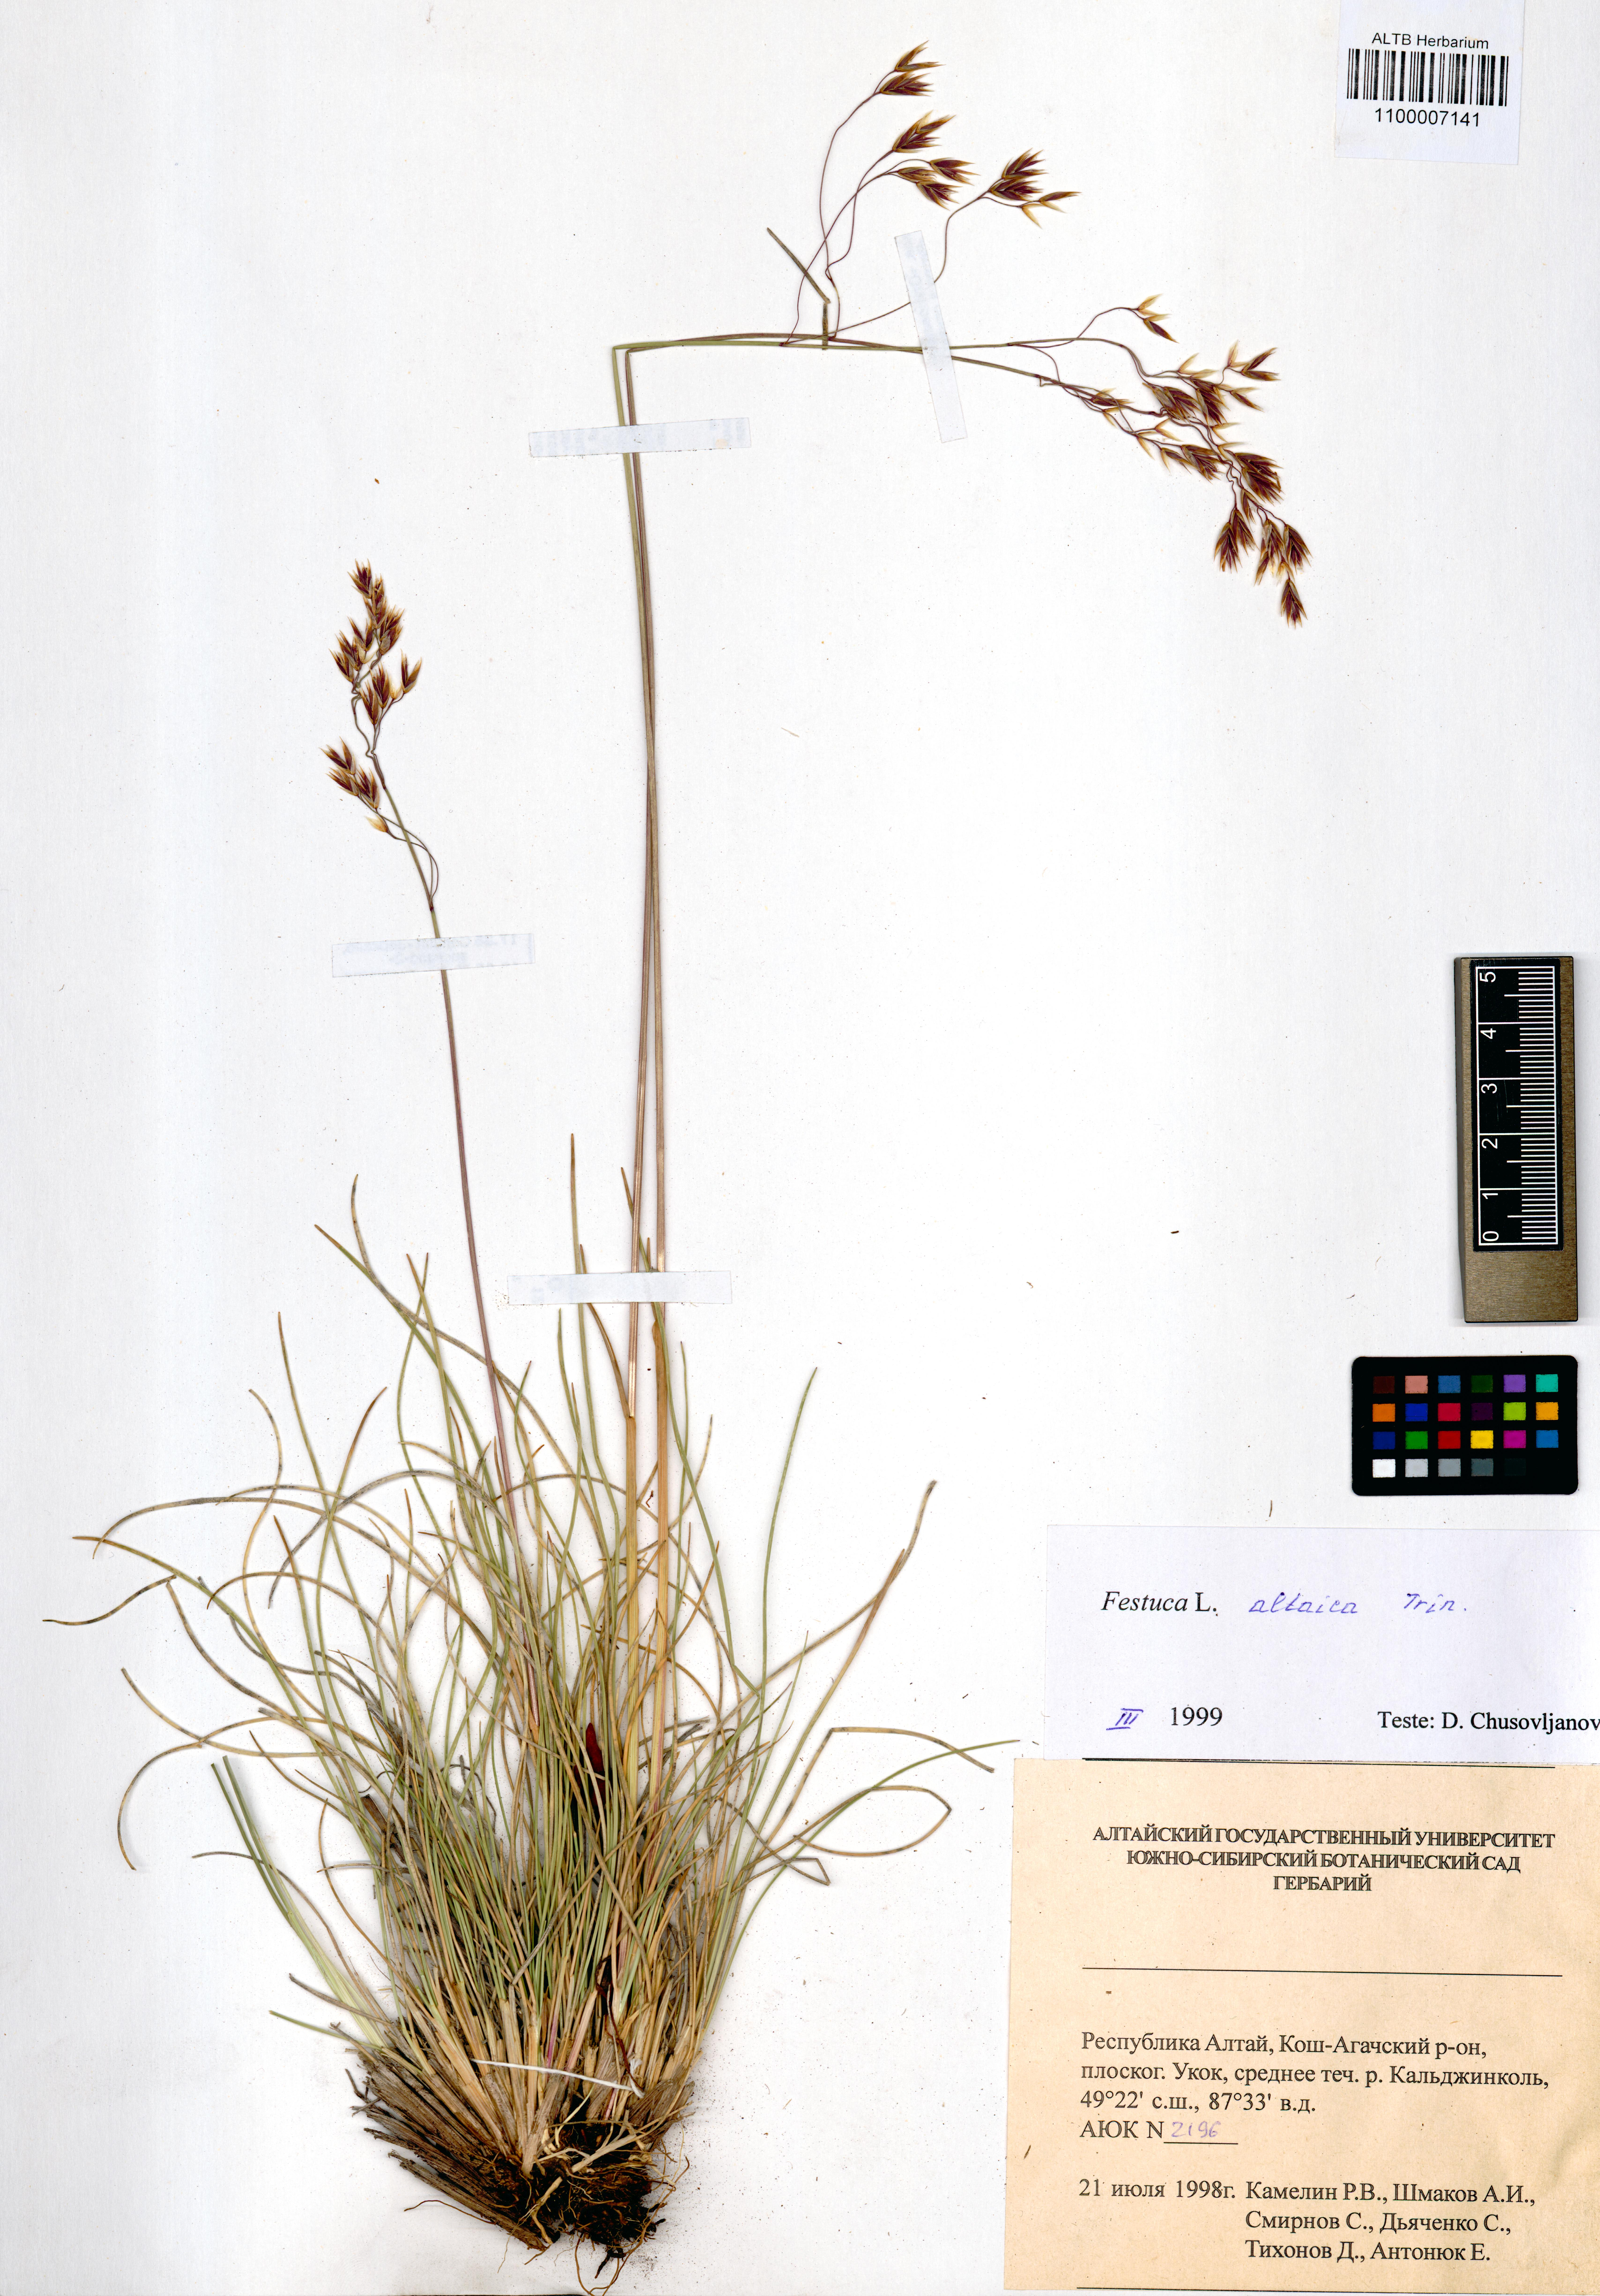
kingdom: Plantae
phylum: Tracheophyta
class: Liliopsida
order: Poales
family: Poaceae
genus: Festuca
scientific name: Festuca altaica
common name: Northern rough fescue
